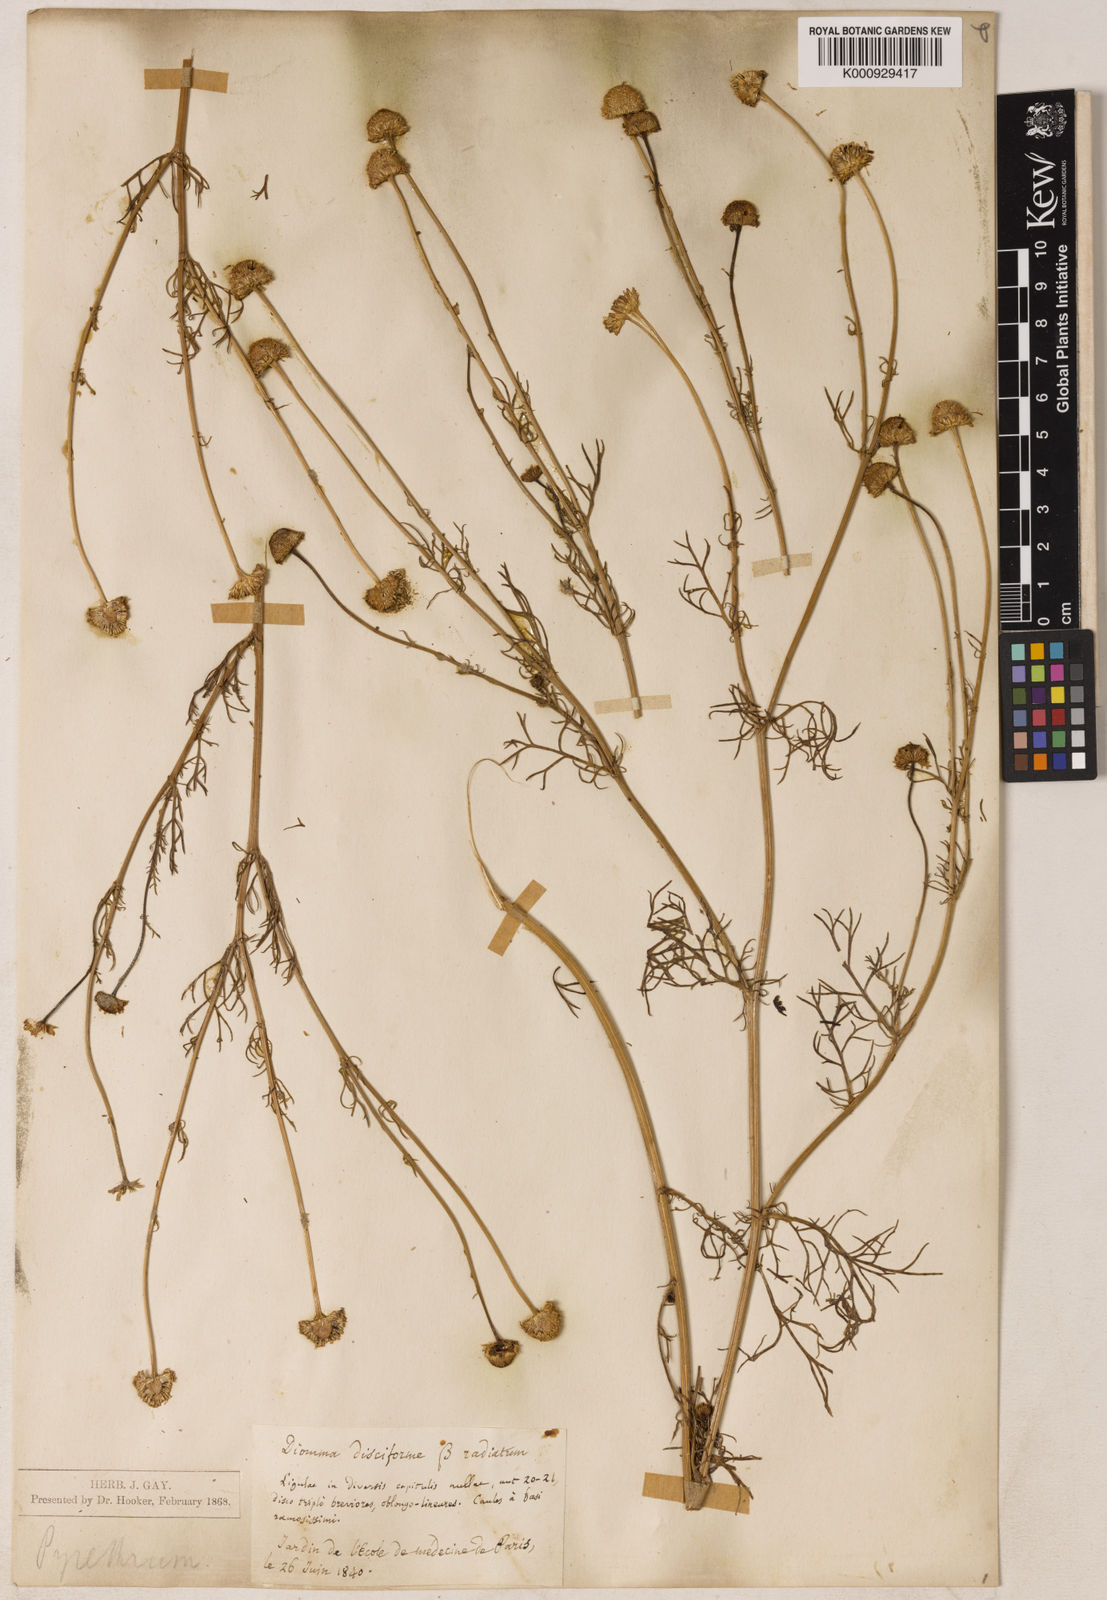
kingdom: Plantae
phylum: Tracheophyta
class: Magnoliopsida
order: Asterales
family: Asteraceae
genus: Tripleurospermum
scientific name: Tripleurospermum
